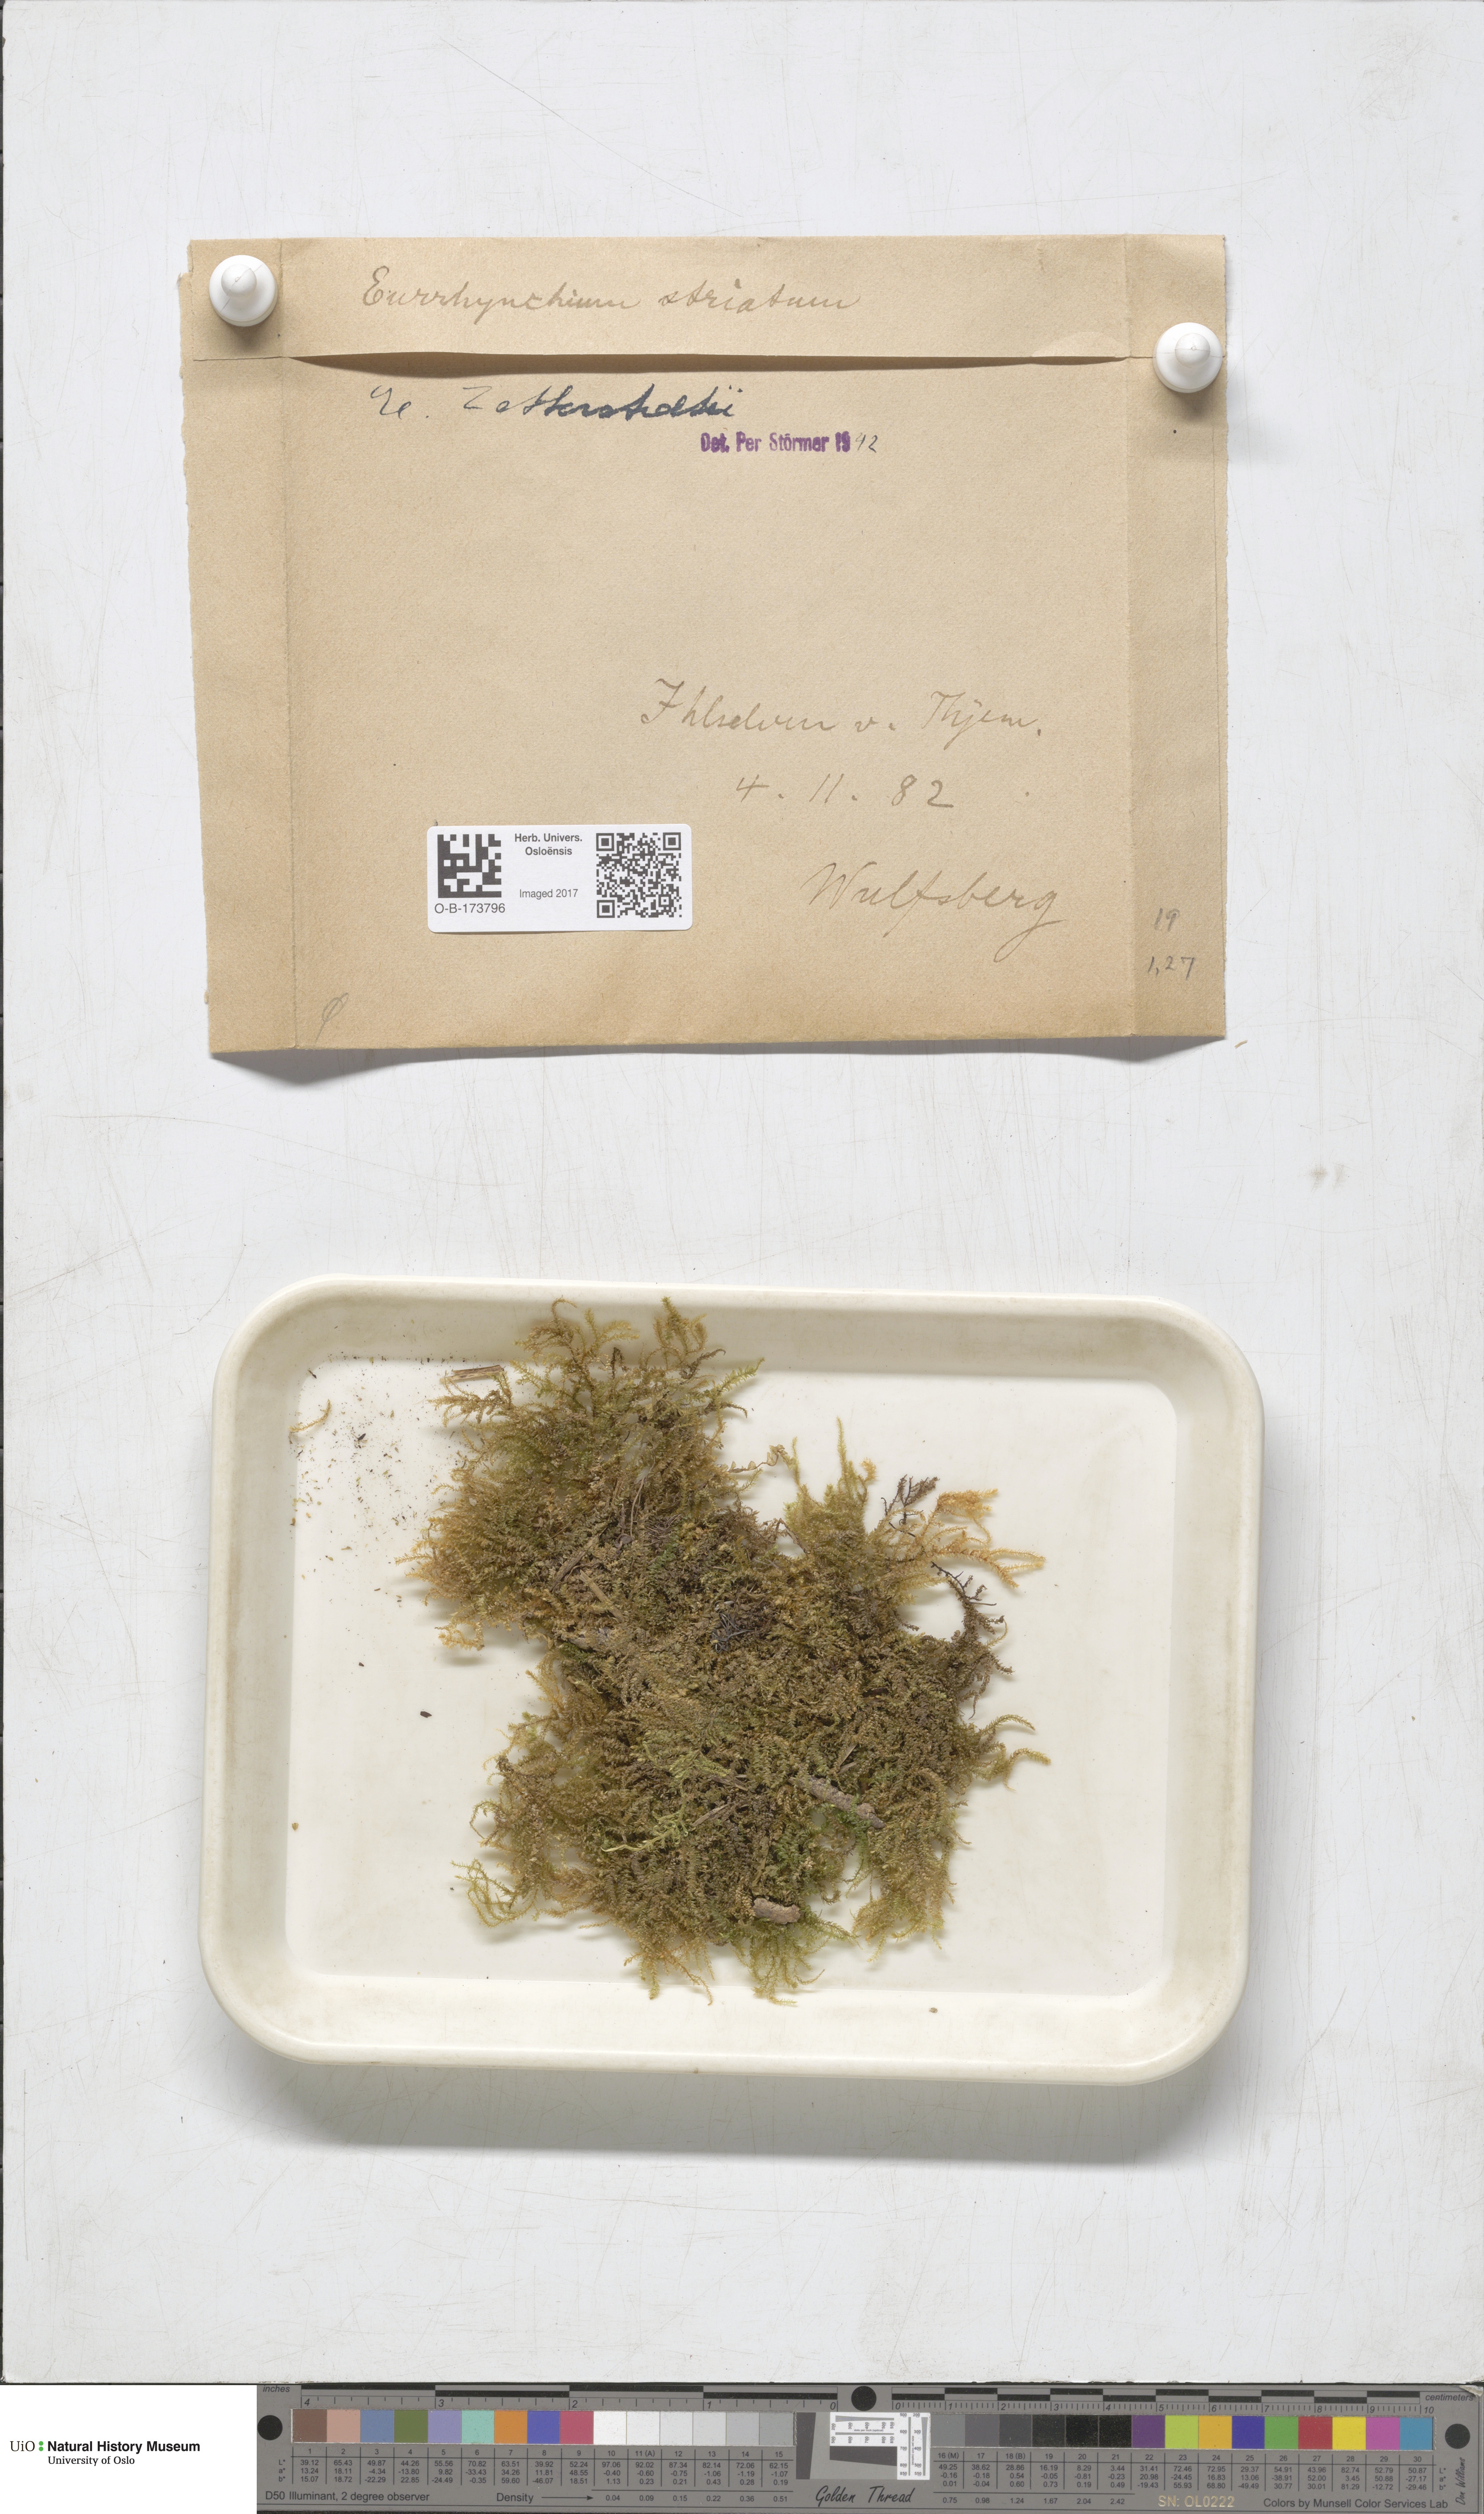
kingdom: Plantae
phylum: Bryophyta
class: Bryopsida
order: Hypnales
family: Brachytheciaceae
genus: Eurhynchium
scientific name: Eurhynchium angustirete
